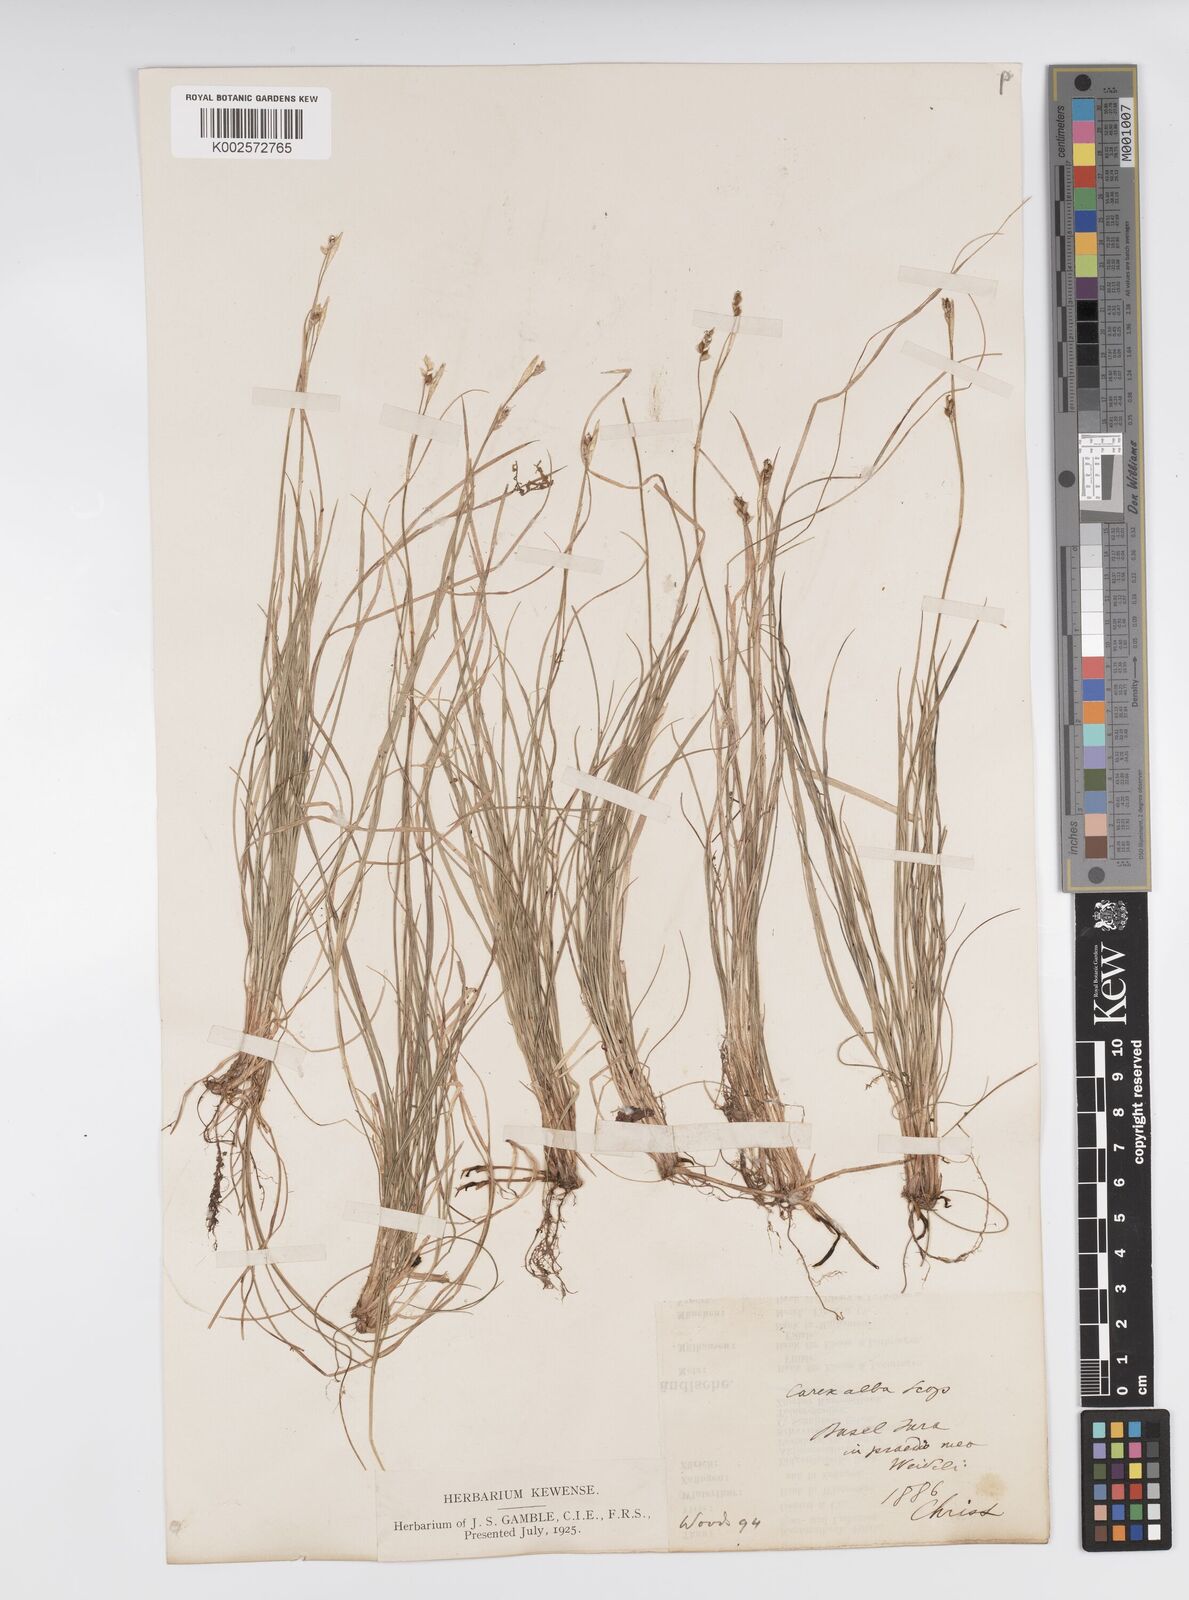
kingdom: Plantae
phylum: Tracheophyta
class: Liliopsida
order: Poales
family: Cyperaceae
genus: Carex
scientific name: Carex alba
